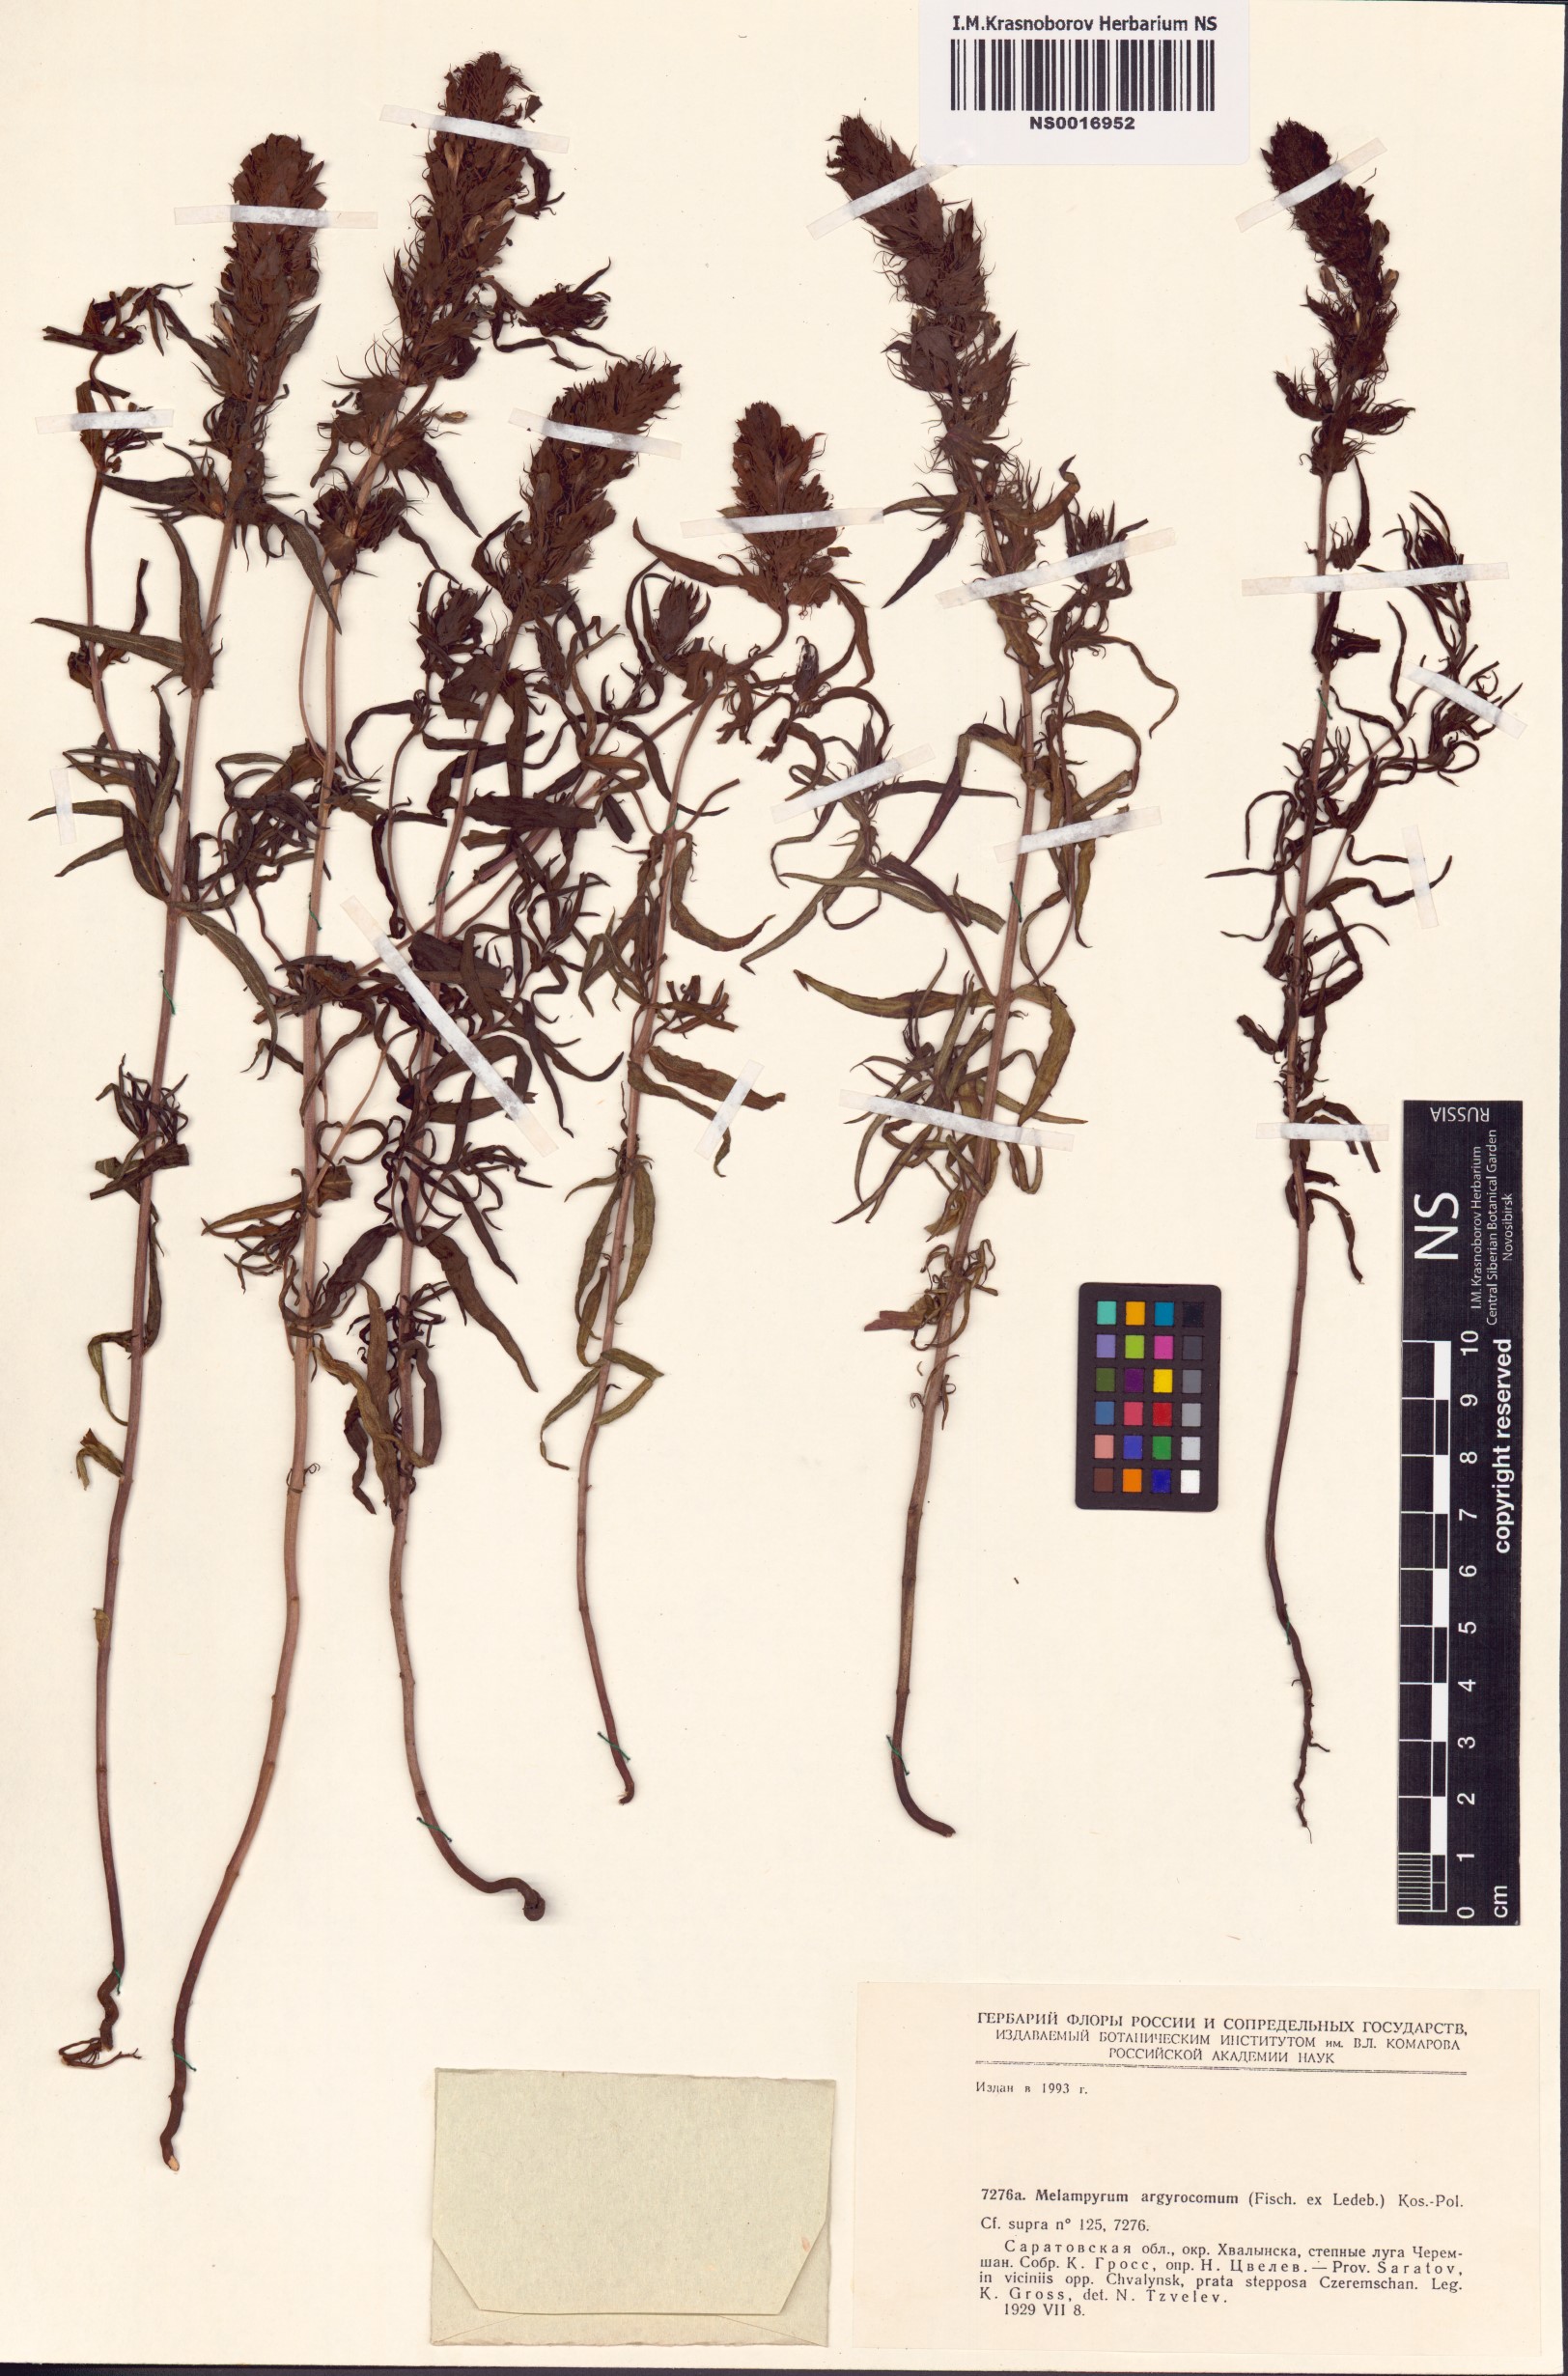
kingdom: Plantae
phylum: Tracheophyta
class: Magnoliopsida
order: Lamiales
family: Orobanchaceae
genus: Melampyrum
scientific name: Melampyrum arvense
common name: Field cow-wheat
